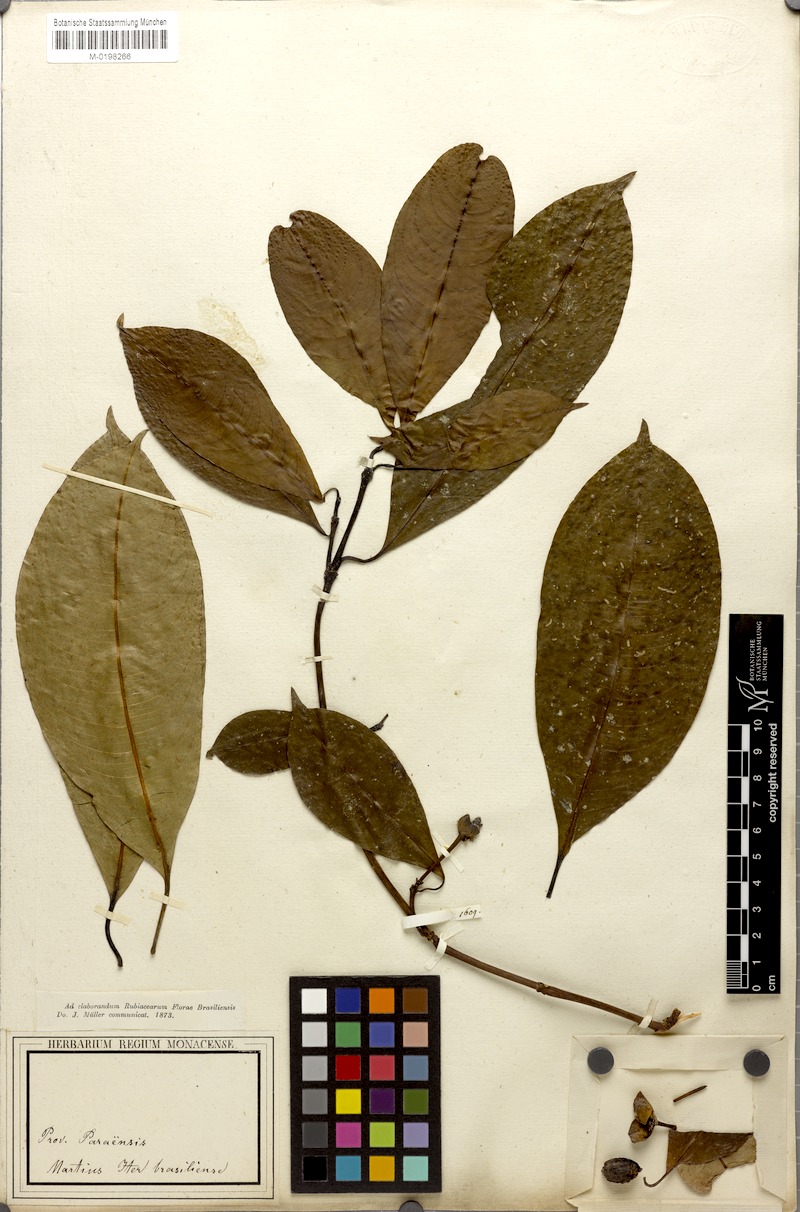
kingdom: Plantae
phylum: Tracheophyta
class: Magnoliopsida
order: Gentianales
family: Rubiaceae
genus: Palicourea
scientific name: Palicourea perinsignis
